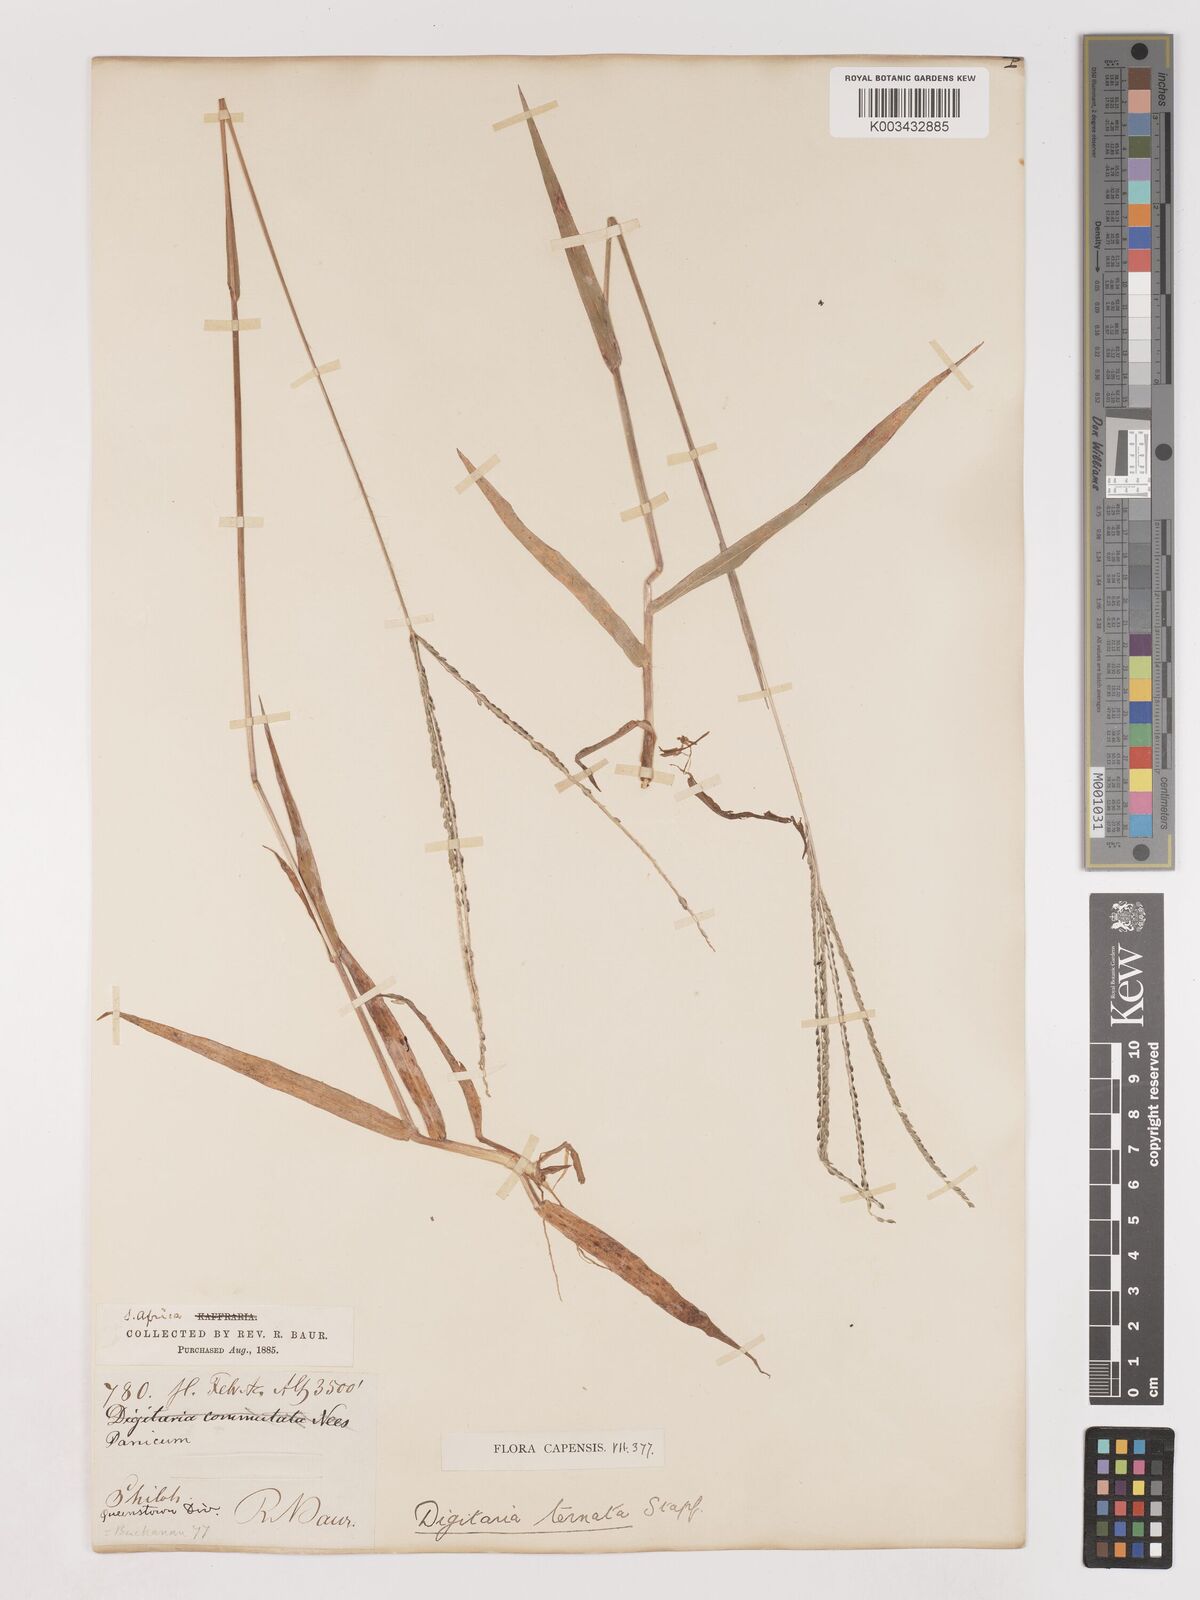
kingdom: Plantae
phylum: Tracheophyta
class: Liliopsida
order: Poales
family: Poaceae
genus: Digitaria
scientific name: Digitaria ternata
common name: Blackseed crabgrass
